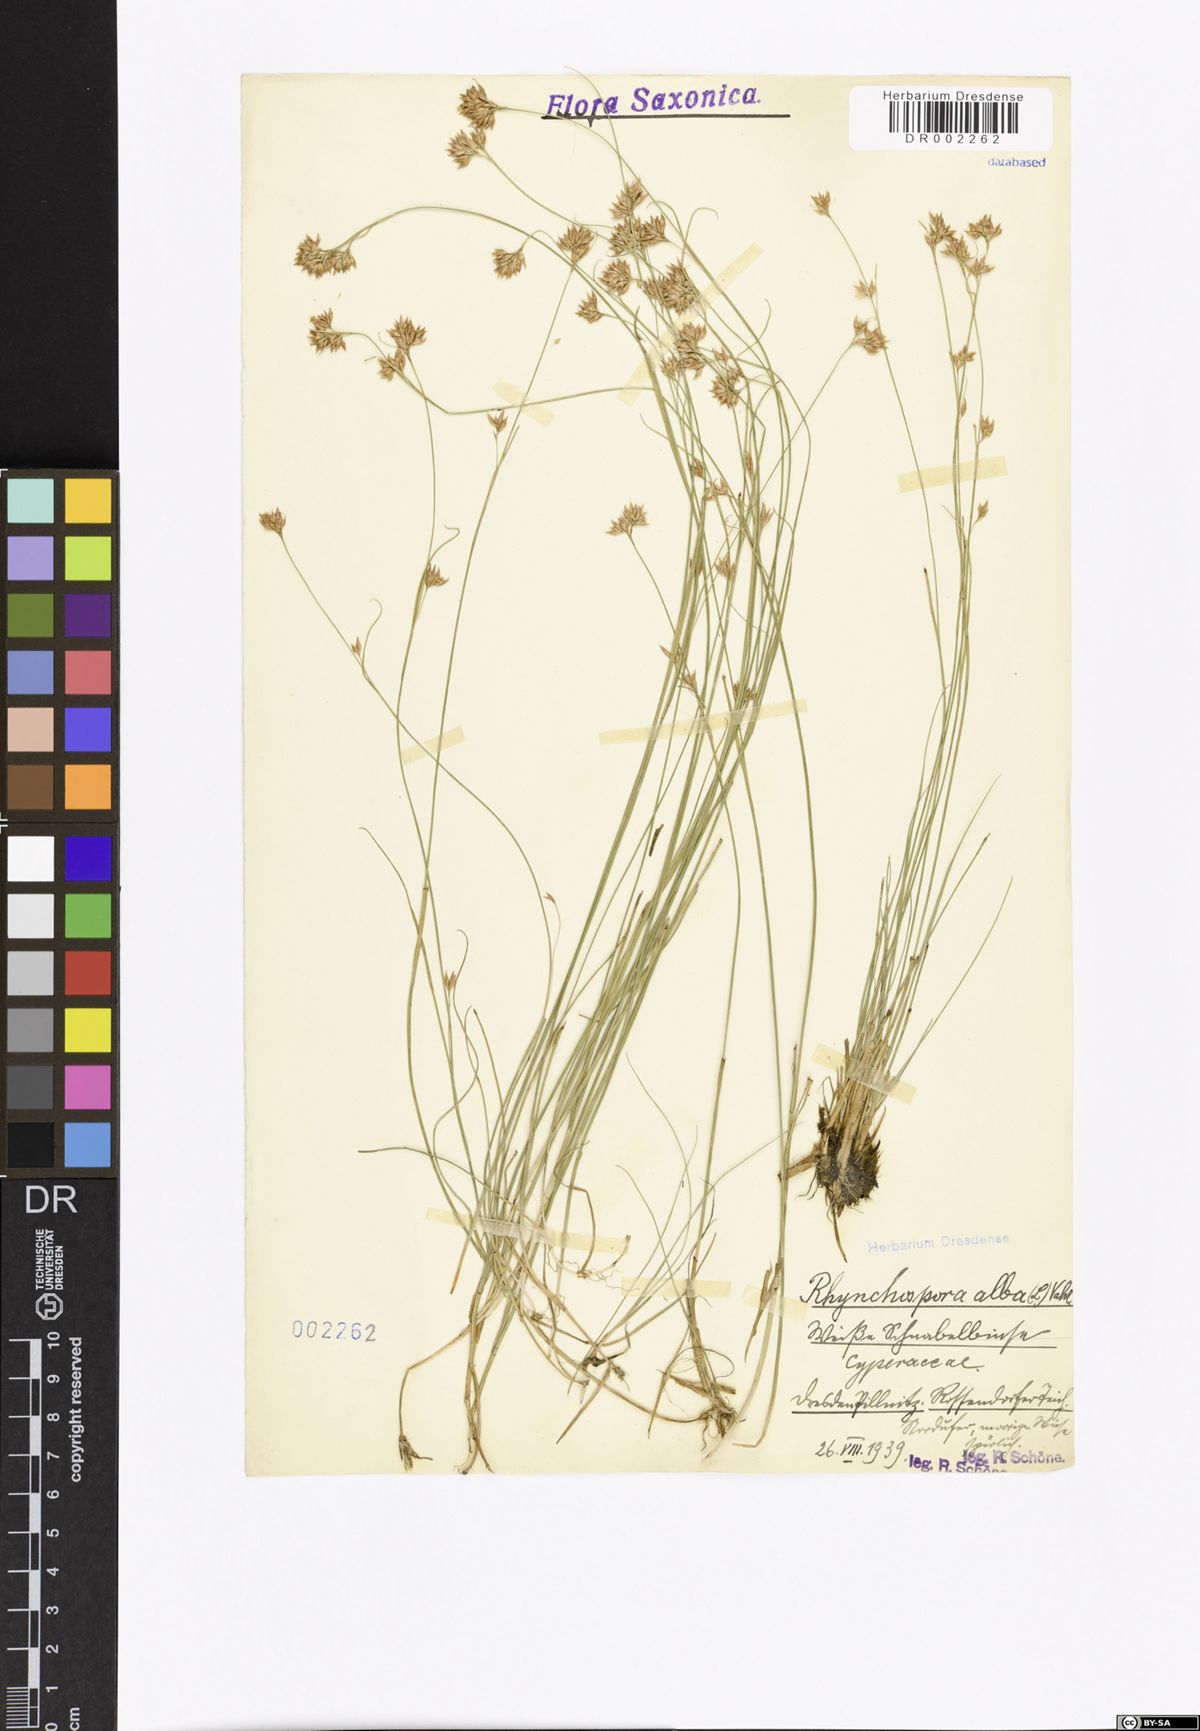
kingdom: Plantae
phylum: Tracheophyta
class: Liliopsida
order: Poales
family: Cyperaceae
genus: Rhynchospora
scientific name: Rhynchospora alba
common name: White beak-sedge
